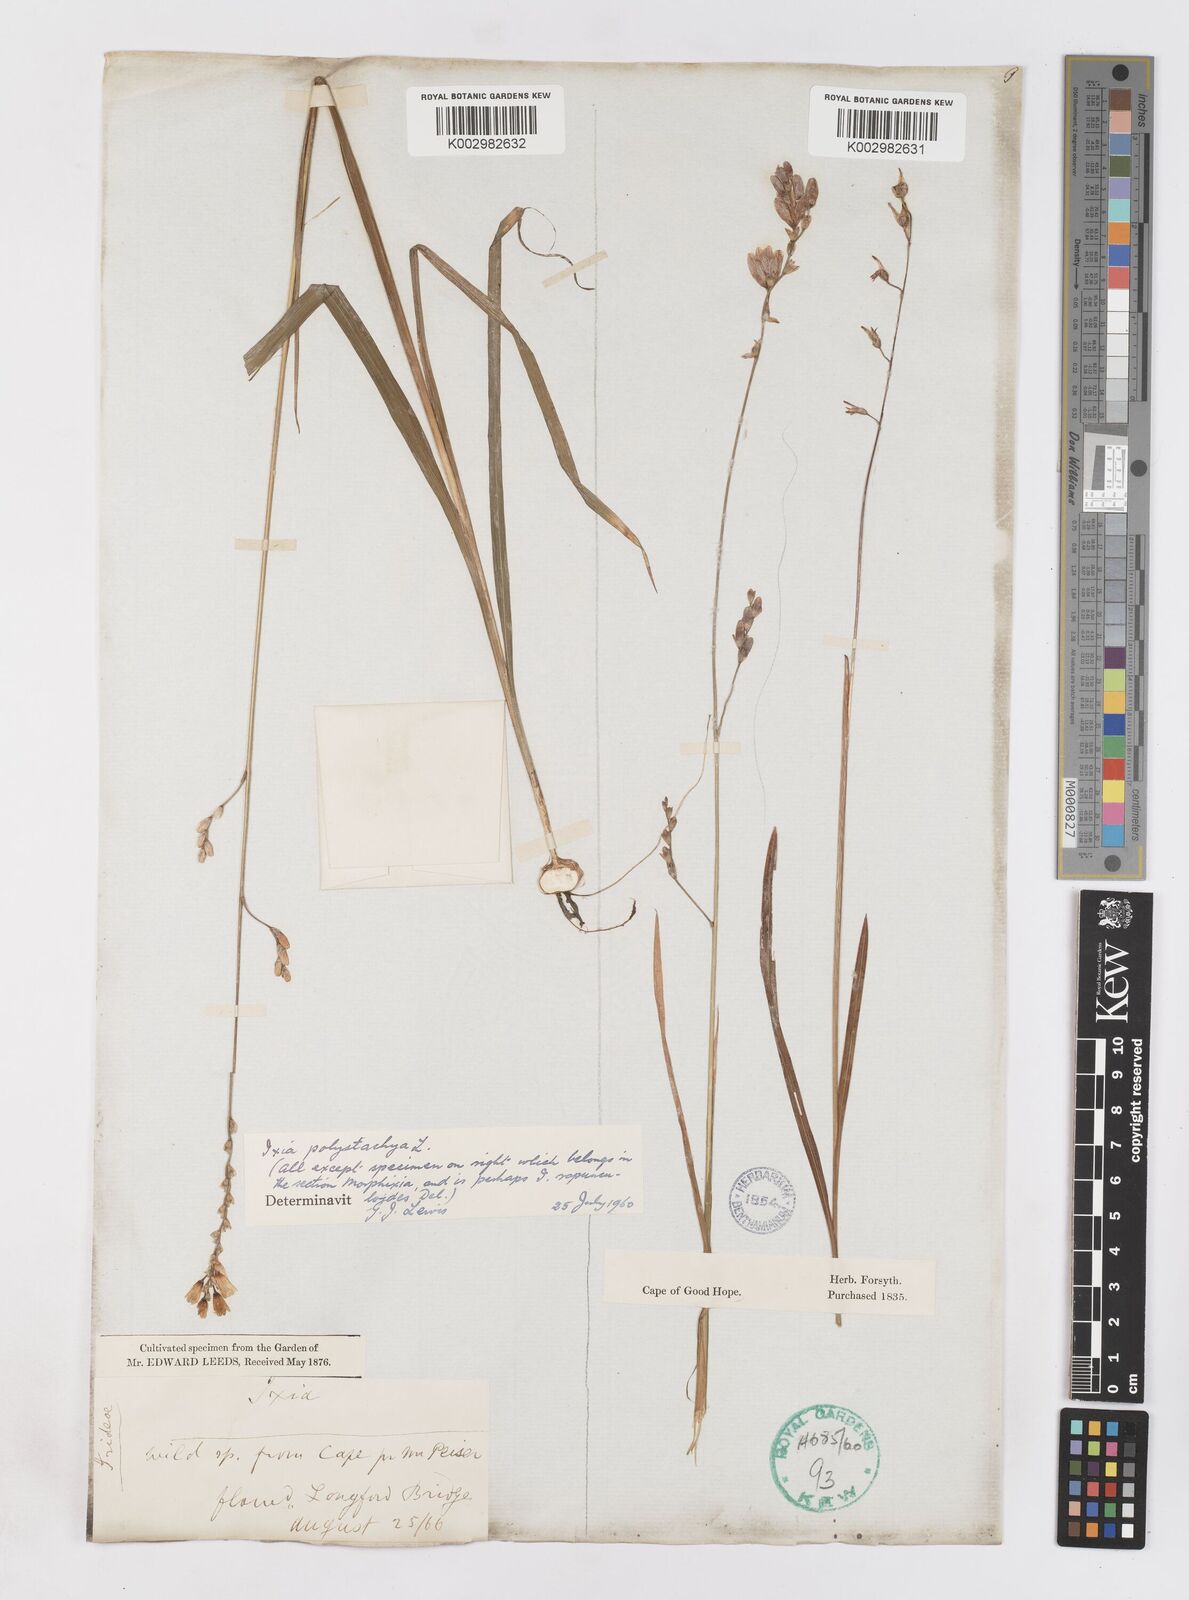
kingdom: Plantae
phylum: Tracheophyta
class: Liliopsida
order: Asparagales
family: Iridaceae
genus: Ixia
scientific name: Ixia polystachya
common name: White-and-yellow-flower cornlily
